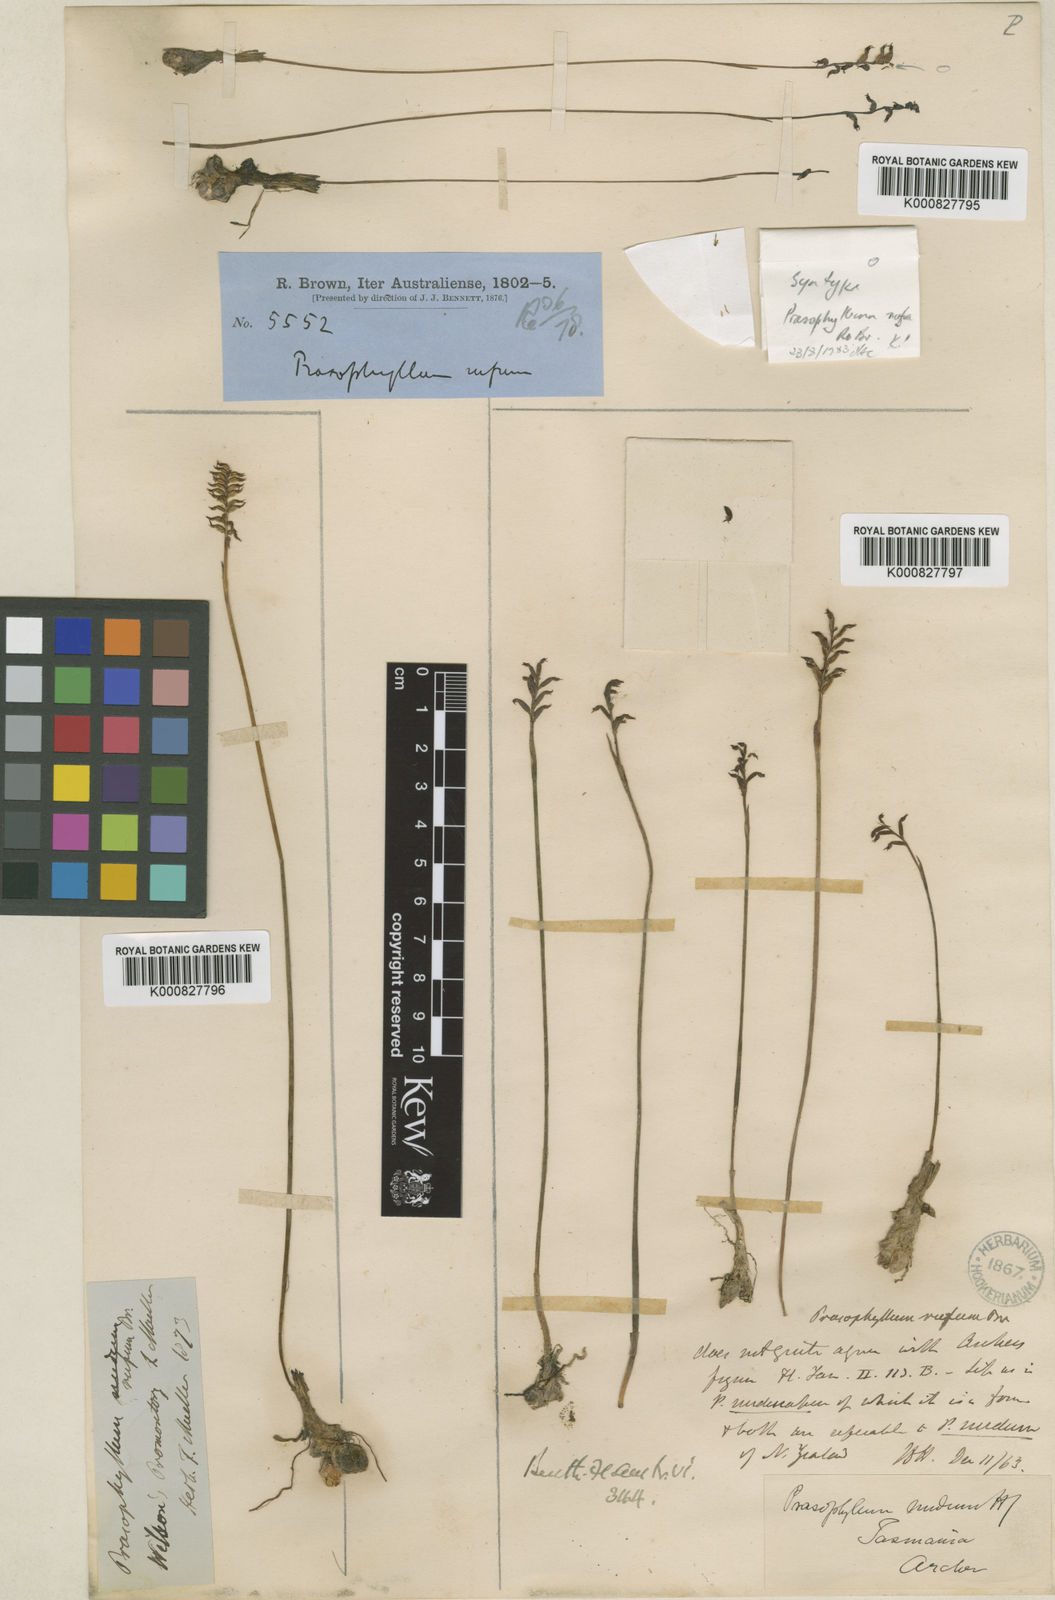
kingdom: Plantae
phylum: Tracheophyta
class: Liliopsida
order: Asparagales
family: Orchidaceae
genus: Genoplesium
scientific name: Genoplesium rufum
